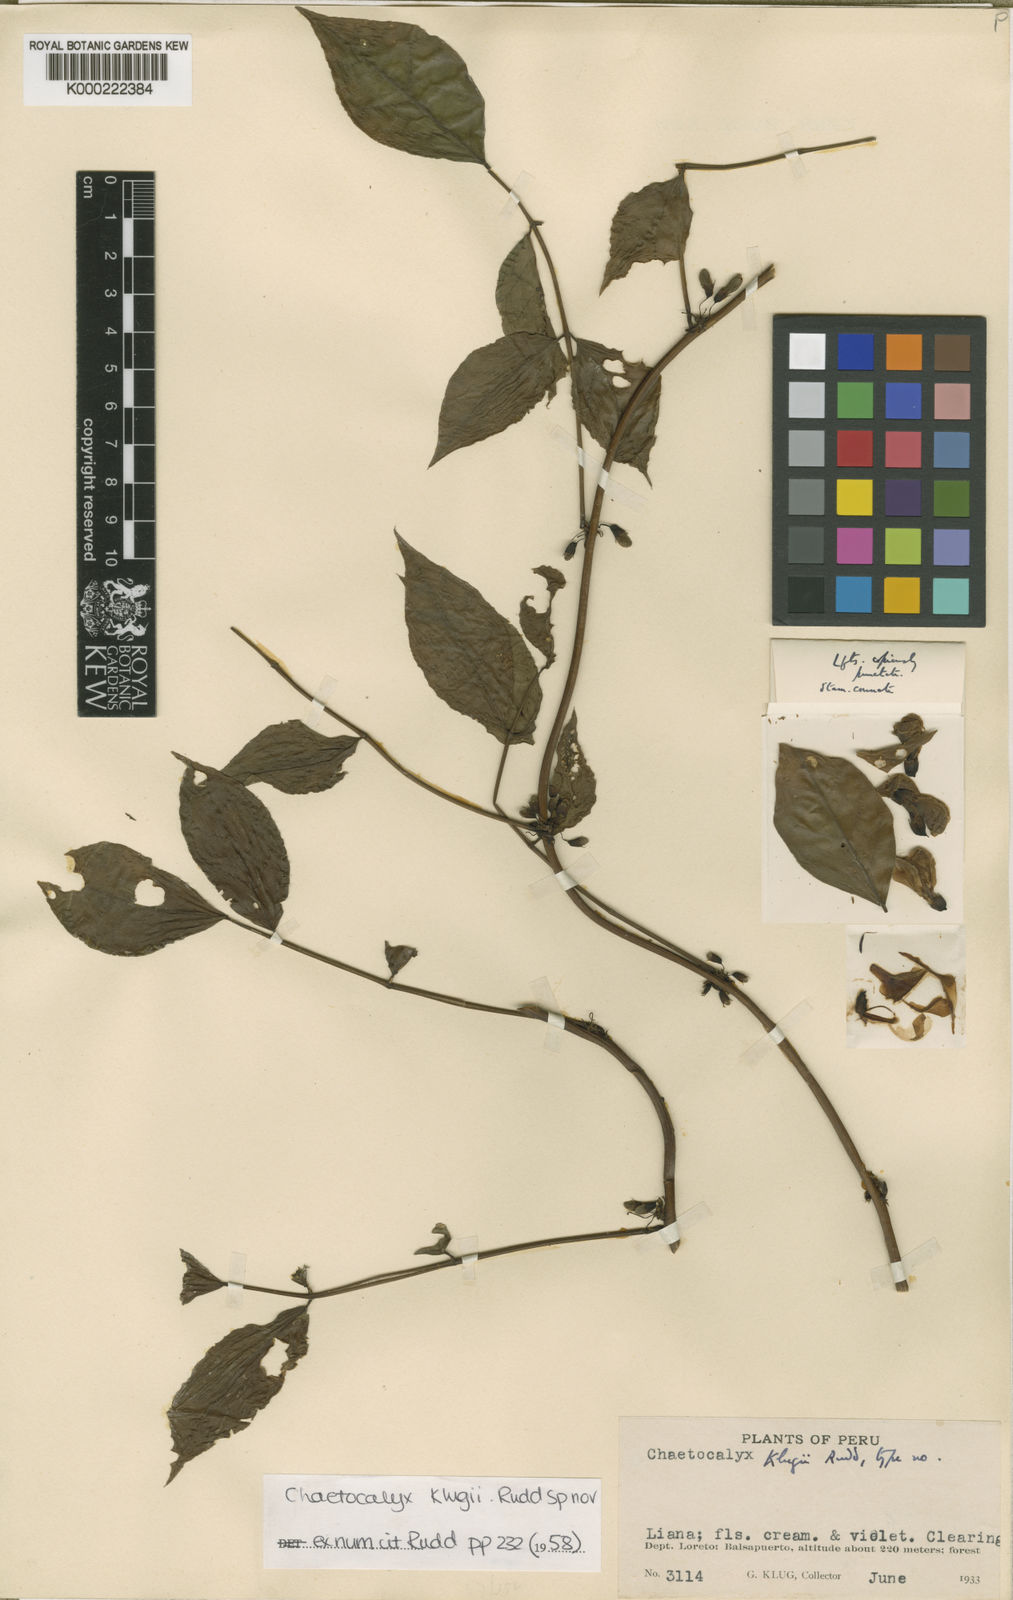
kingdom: Plantae
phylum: Tracheophyta
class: Magnoliopsida
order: Fabales
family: Fabaceae
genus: Nissolia
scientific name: Nissolia klugii
